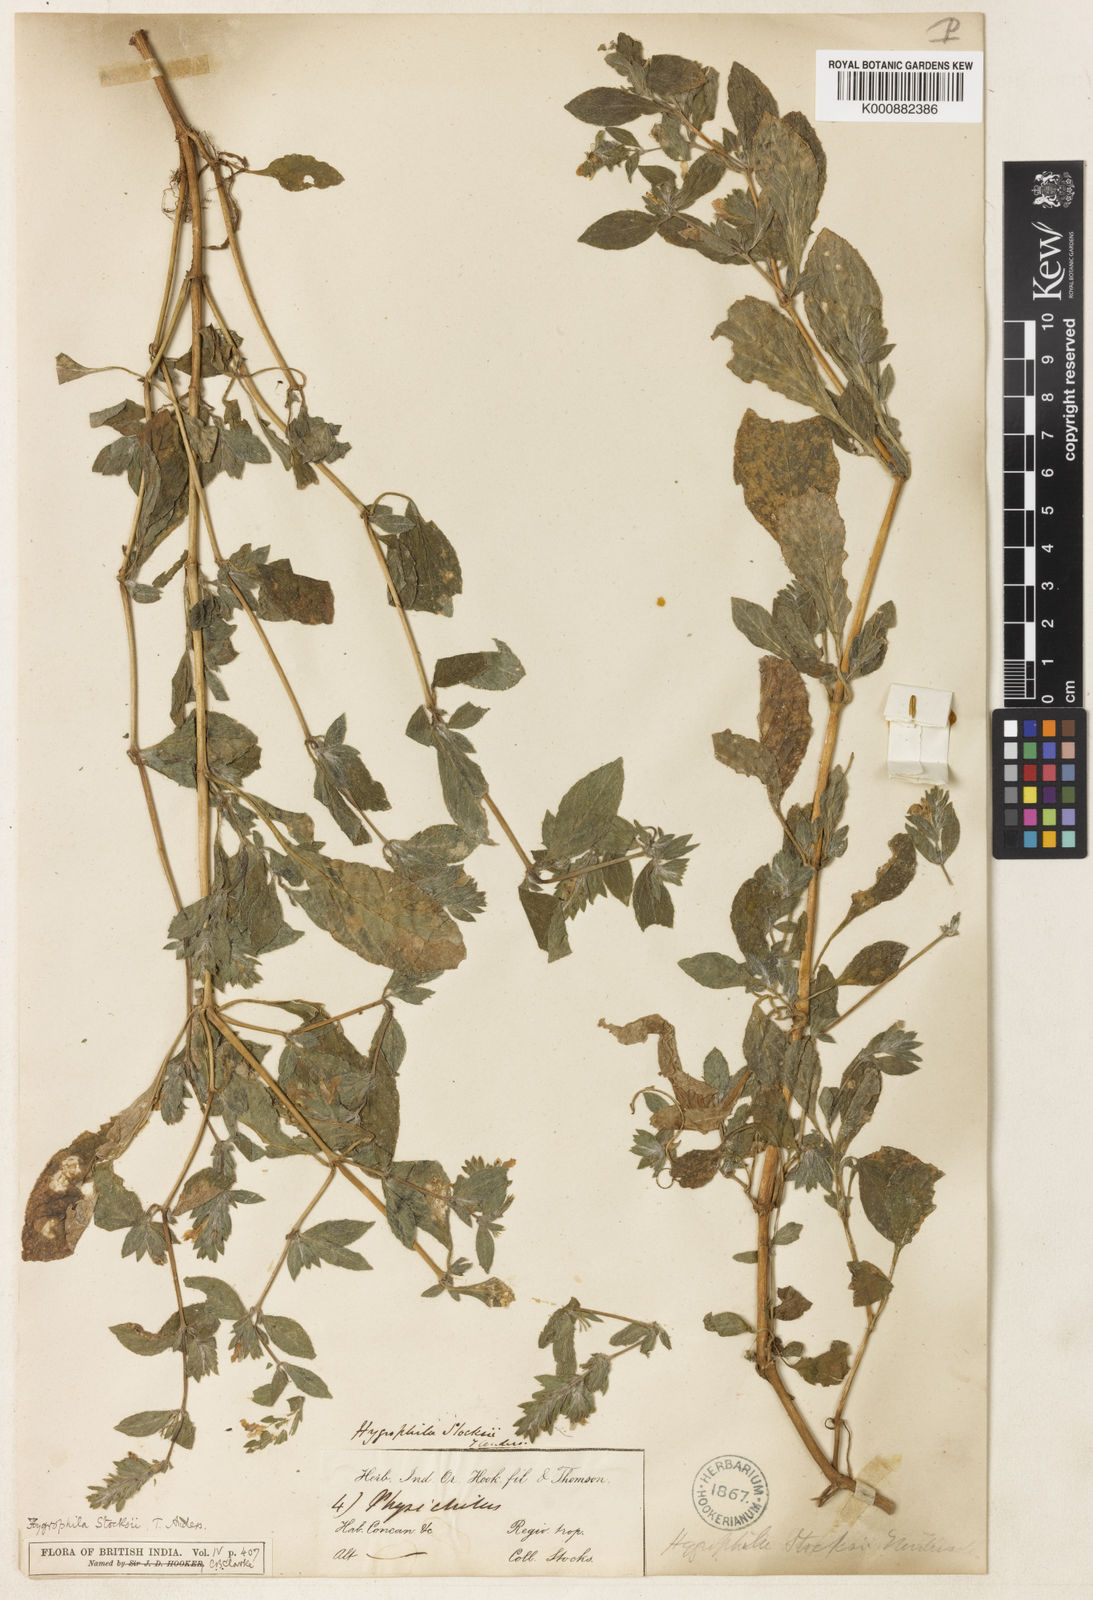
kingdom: Plantae
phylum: Tracheophyta
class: Magnoliopsida
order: Lamiales
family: Acanthaceae
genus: Hygrophila
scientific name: Hygrophila stocksii
